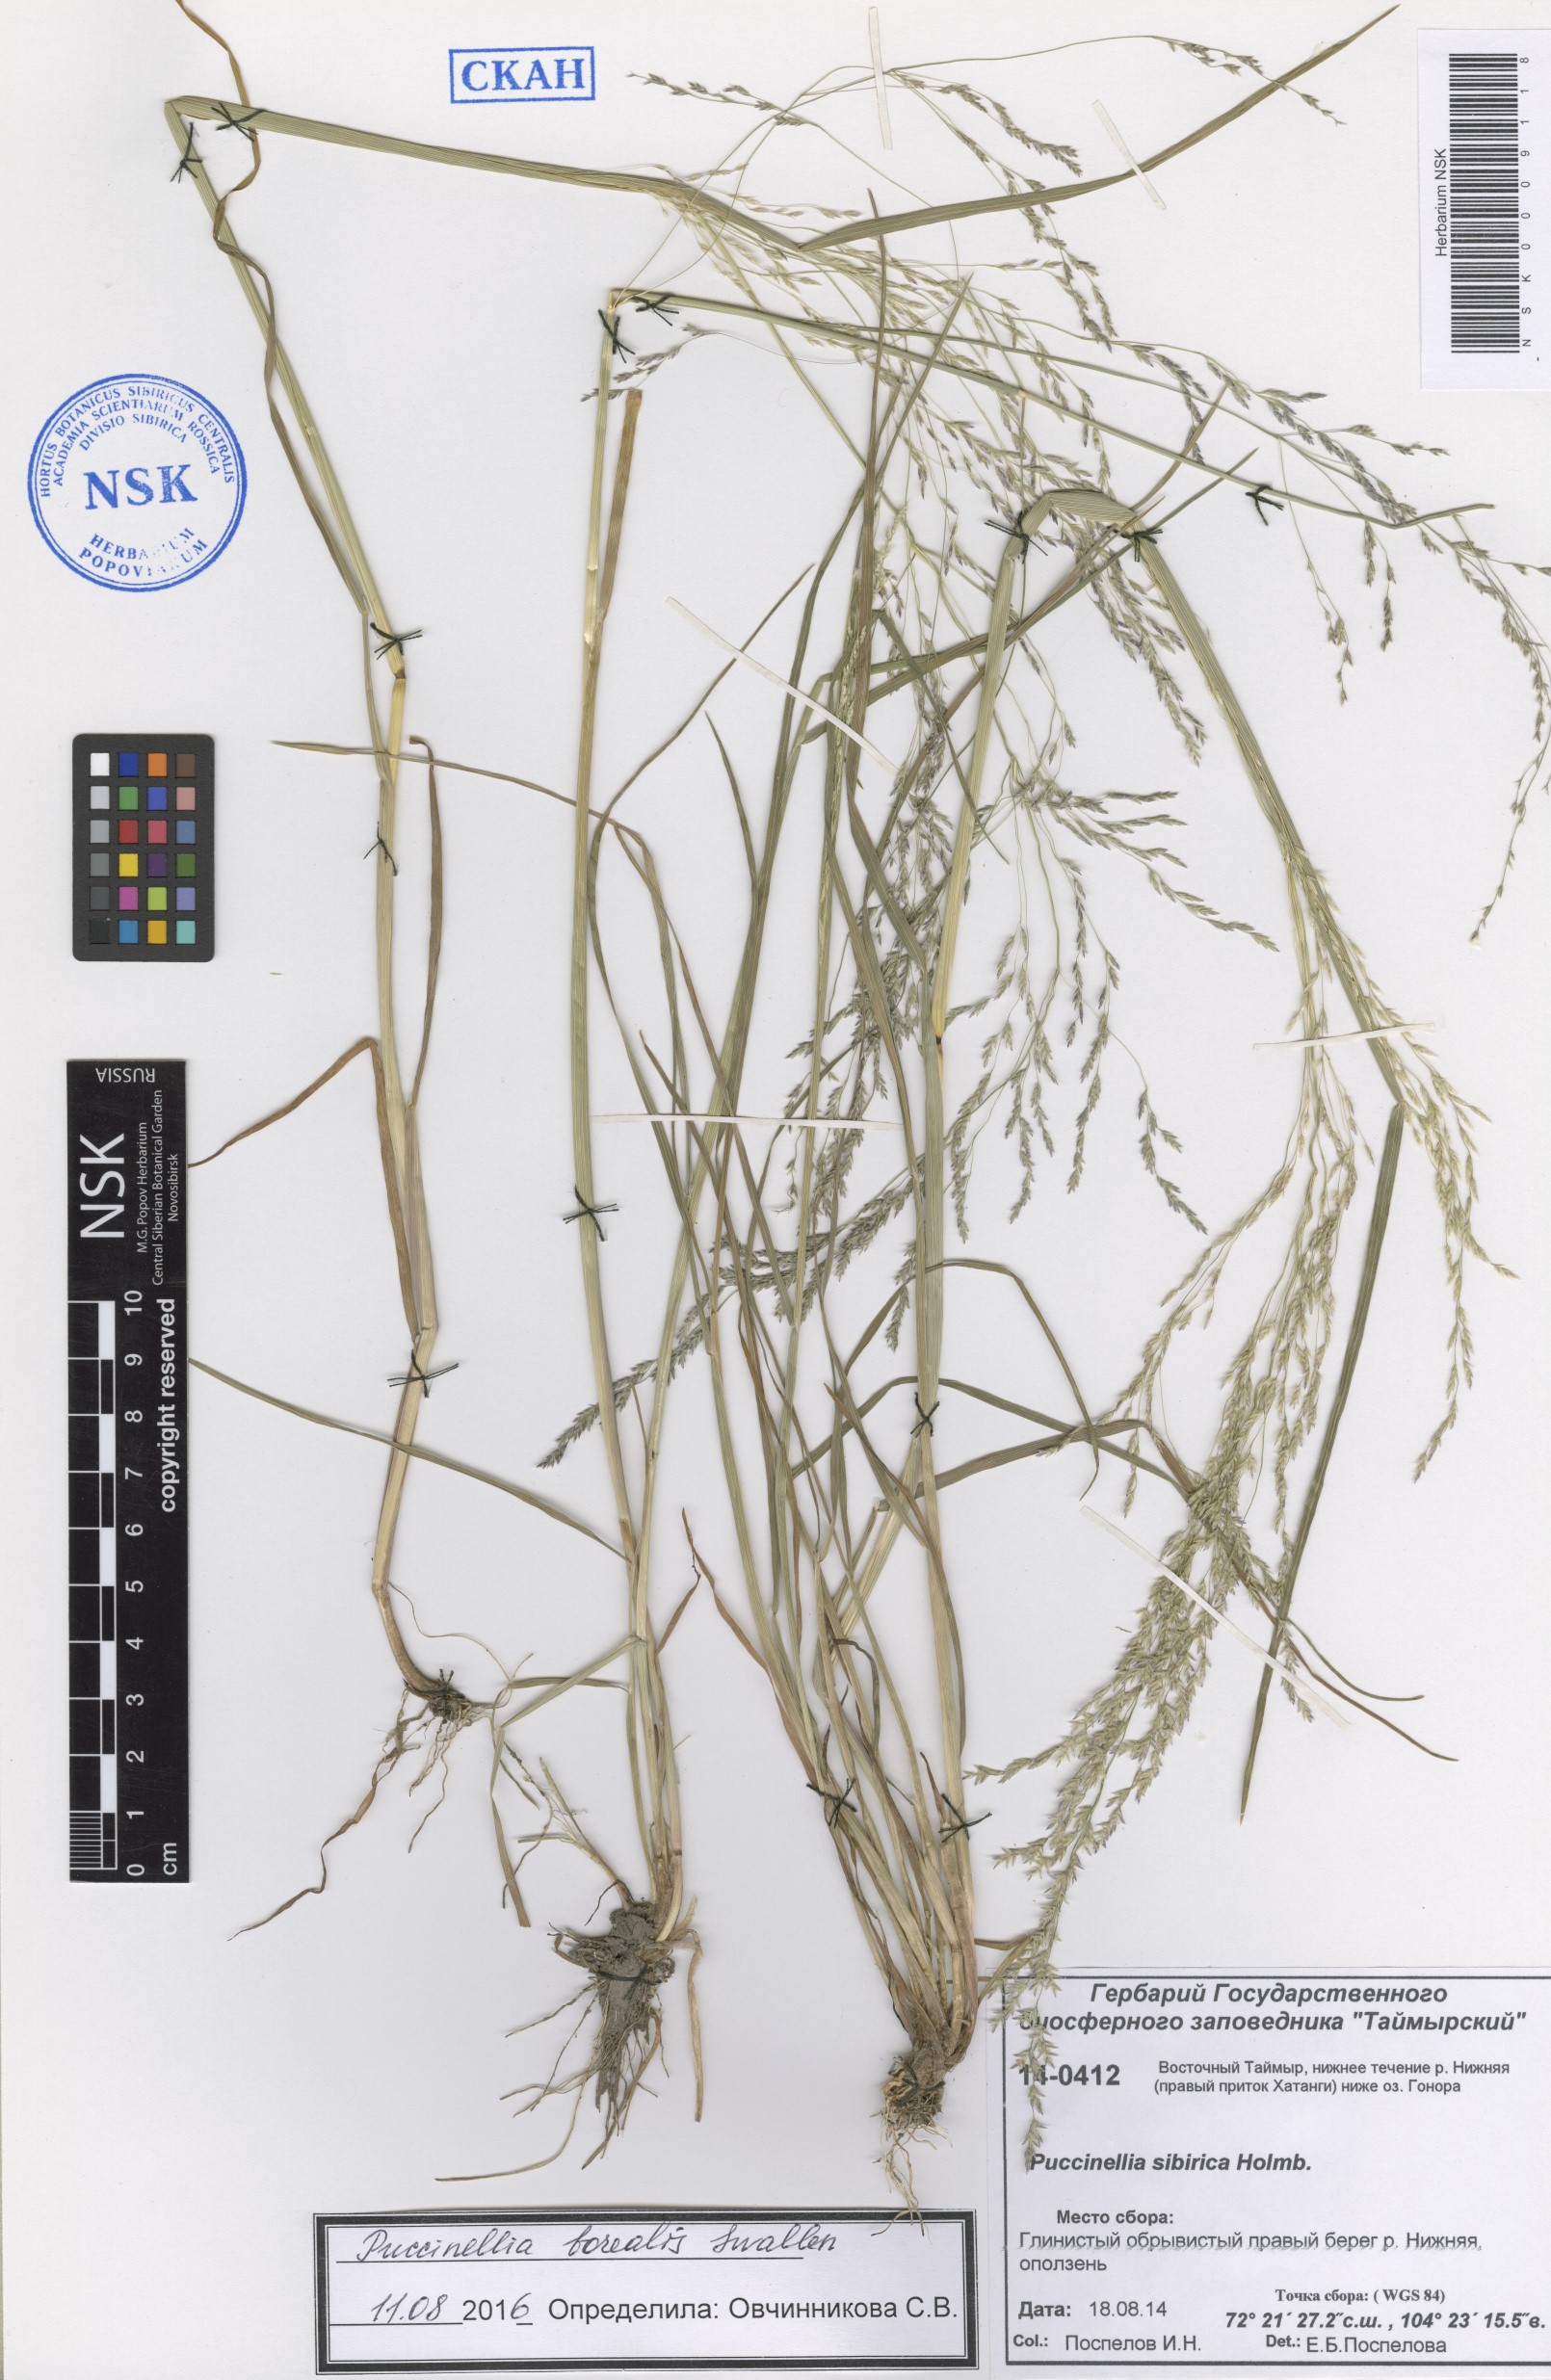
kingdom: Plantae
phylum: Tracheophyta
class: Liliopsida
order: Poales
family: Poaceae
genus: Puccinellia
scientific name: Puccinellia nuttalliana
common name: Nuttall's alkali grass
